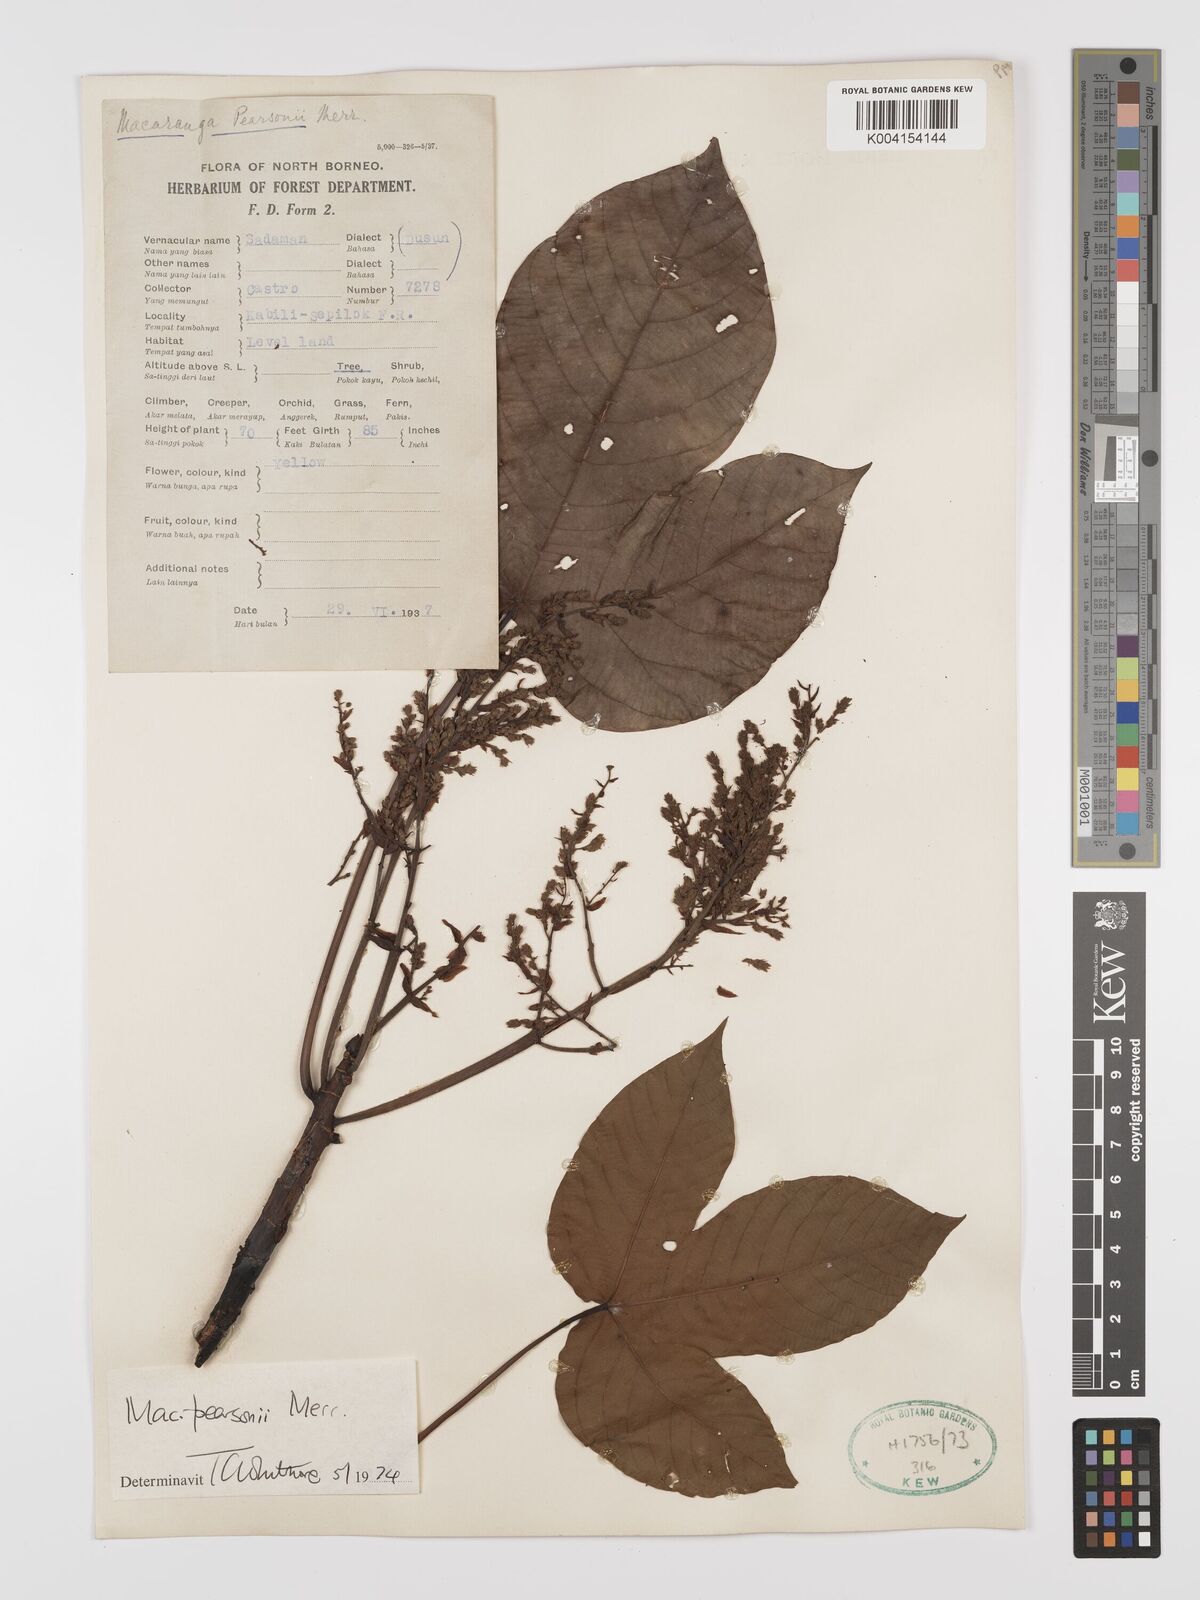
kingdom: Plantae
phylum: Tracheophyta
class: Magnoliopsida
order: Malpighiales
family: Euphorbiaceae
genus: Macaranga
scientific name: Macaranga pearsonii
